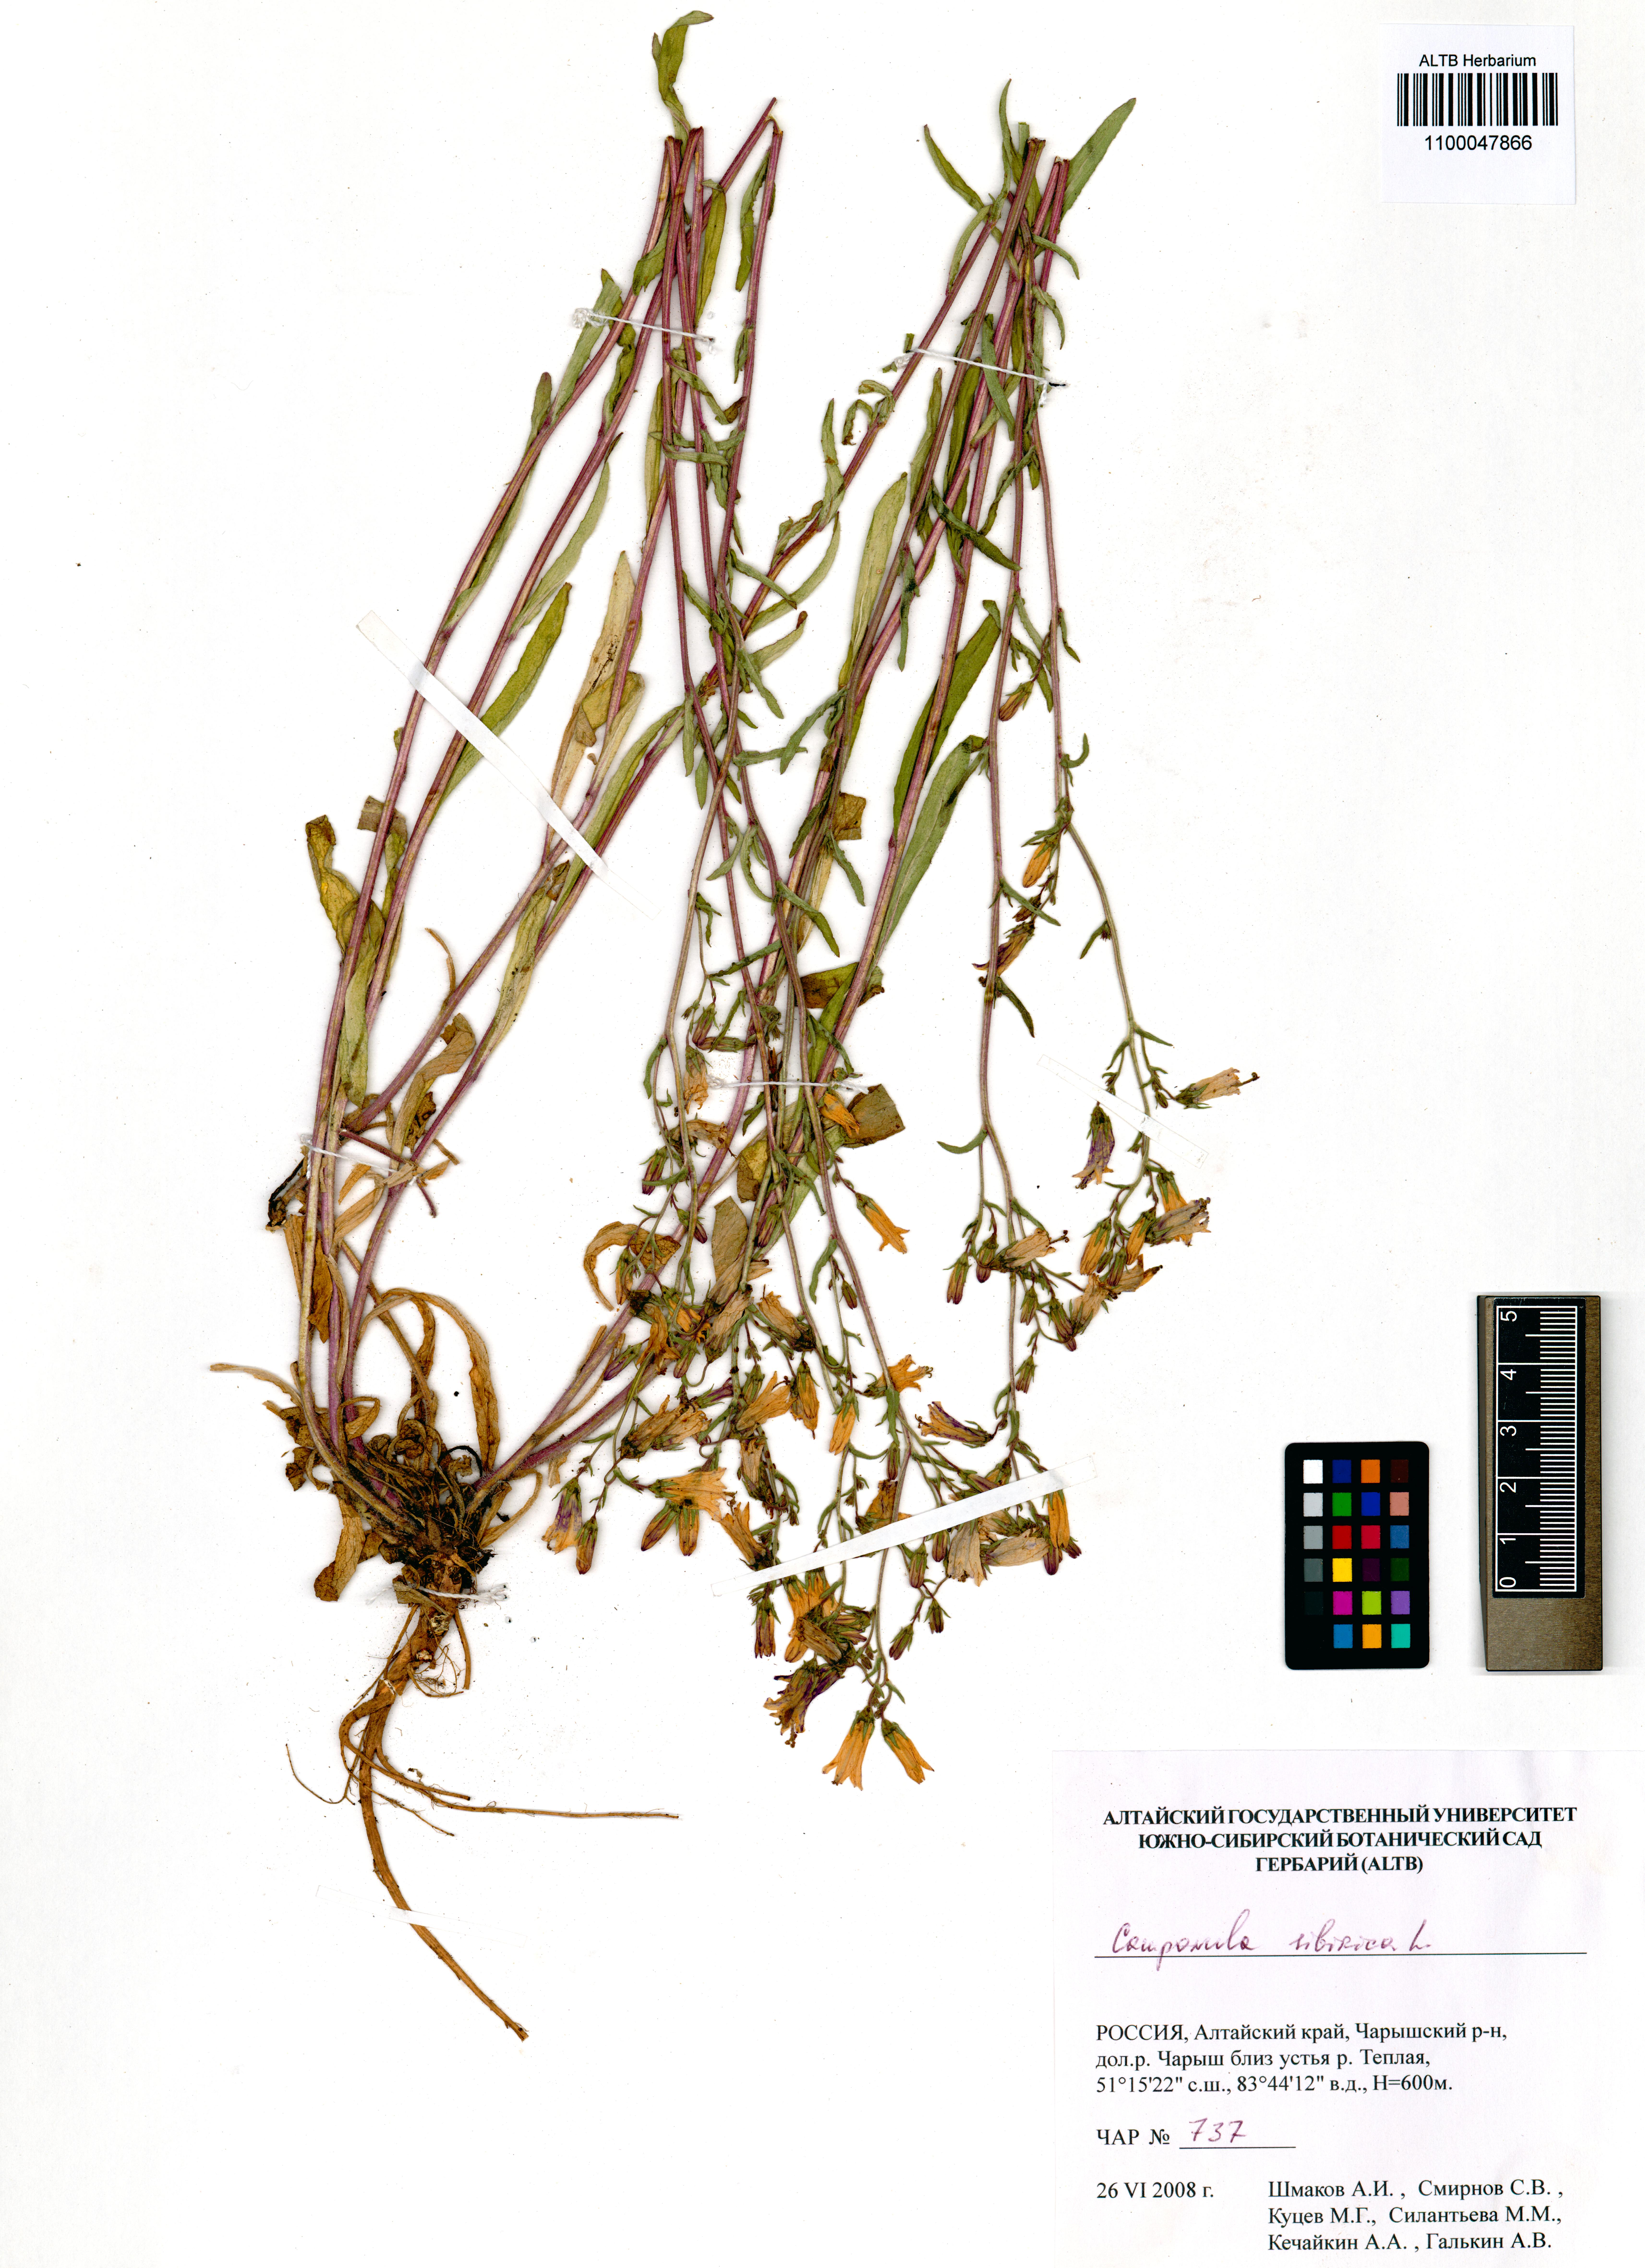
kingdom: Plantae
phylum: Tracheophyta
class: Magnoliopsida
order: Asterales
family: Campanulaceae
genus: Campanula
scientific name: Campanula sibirica
